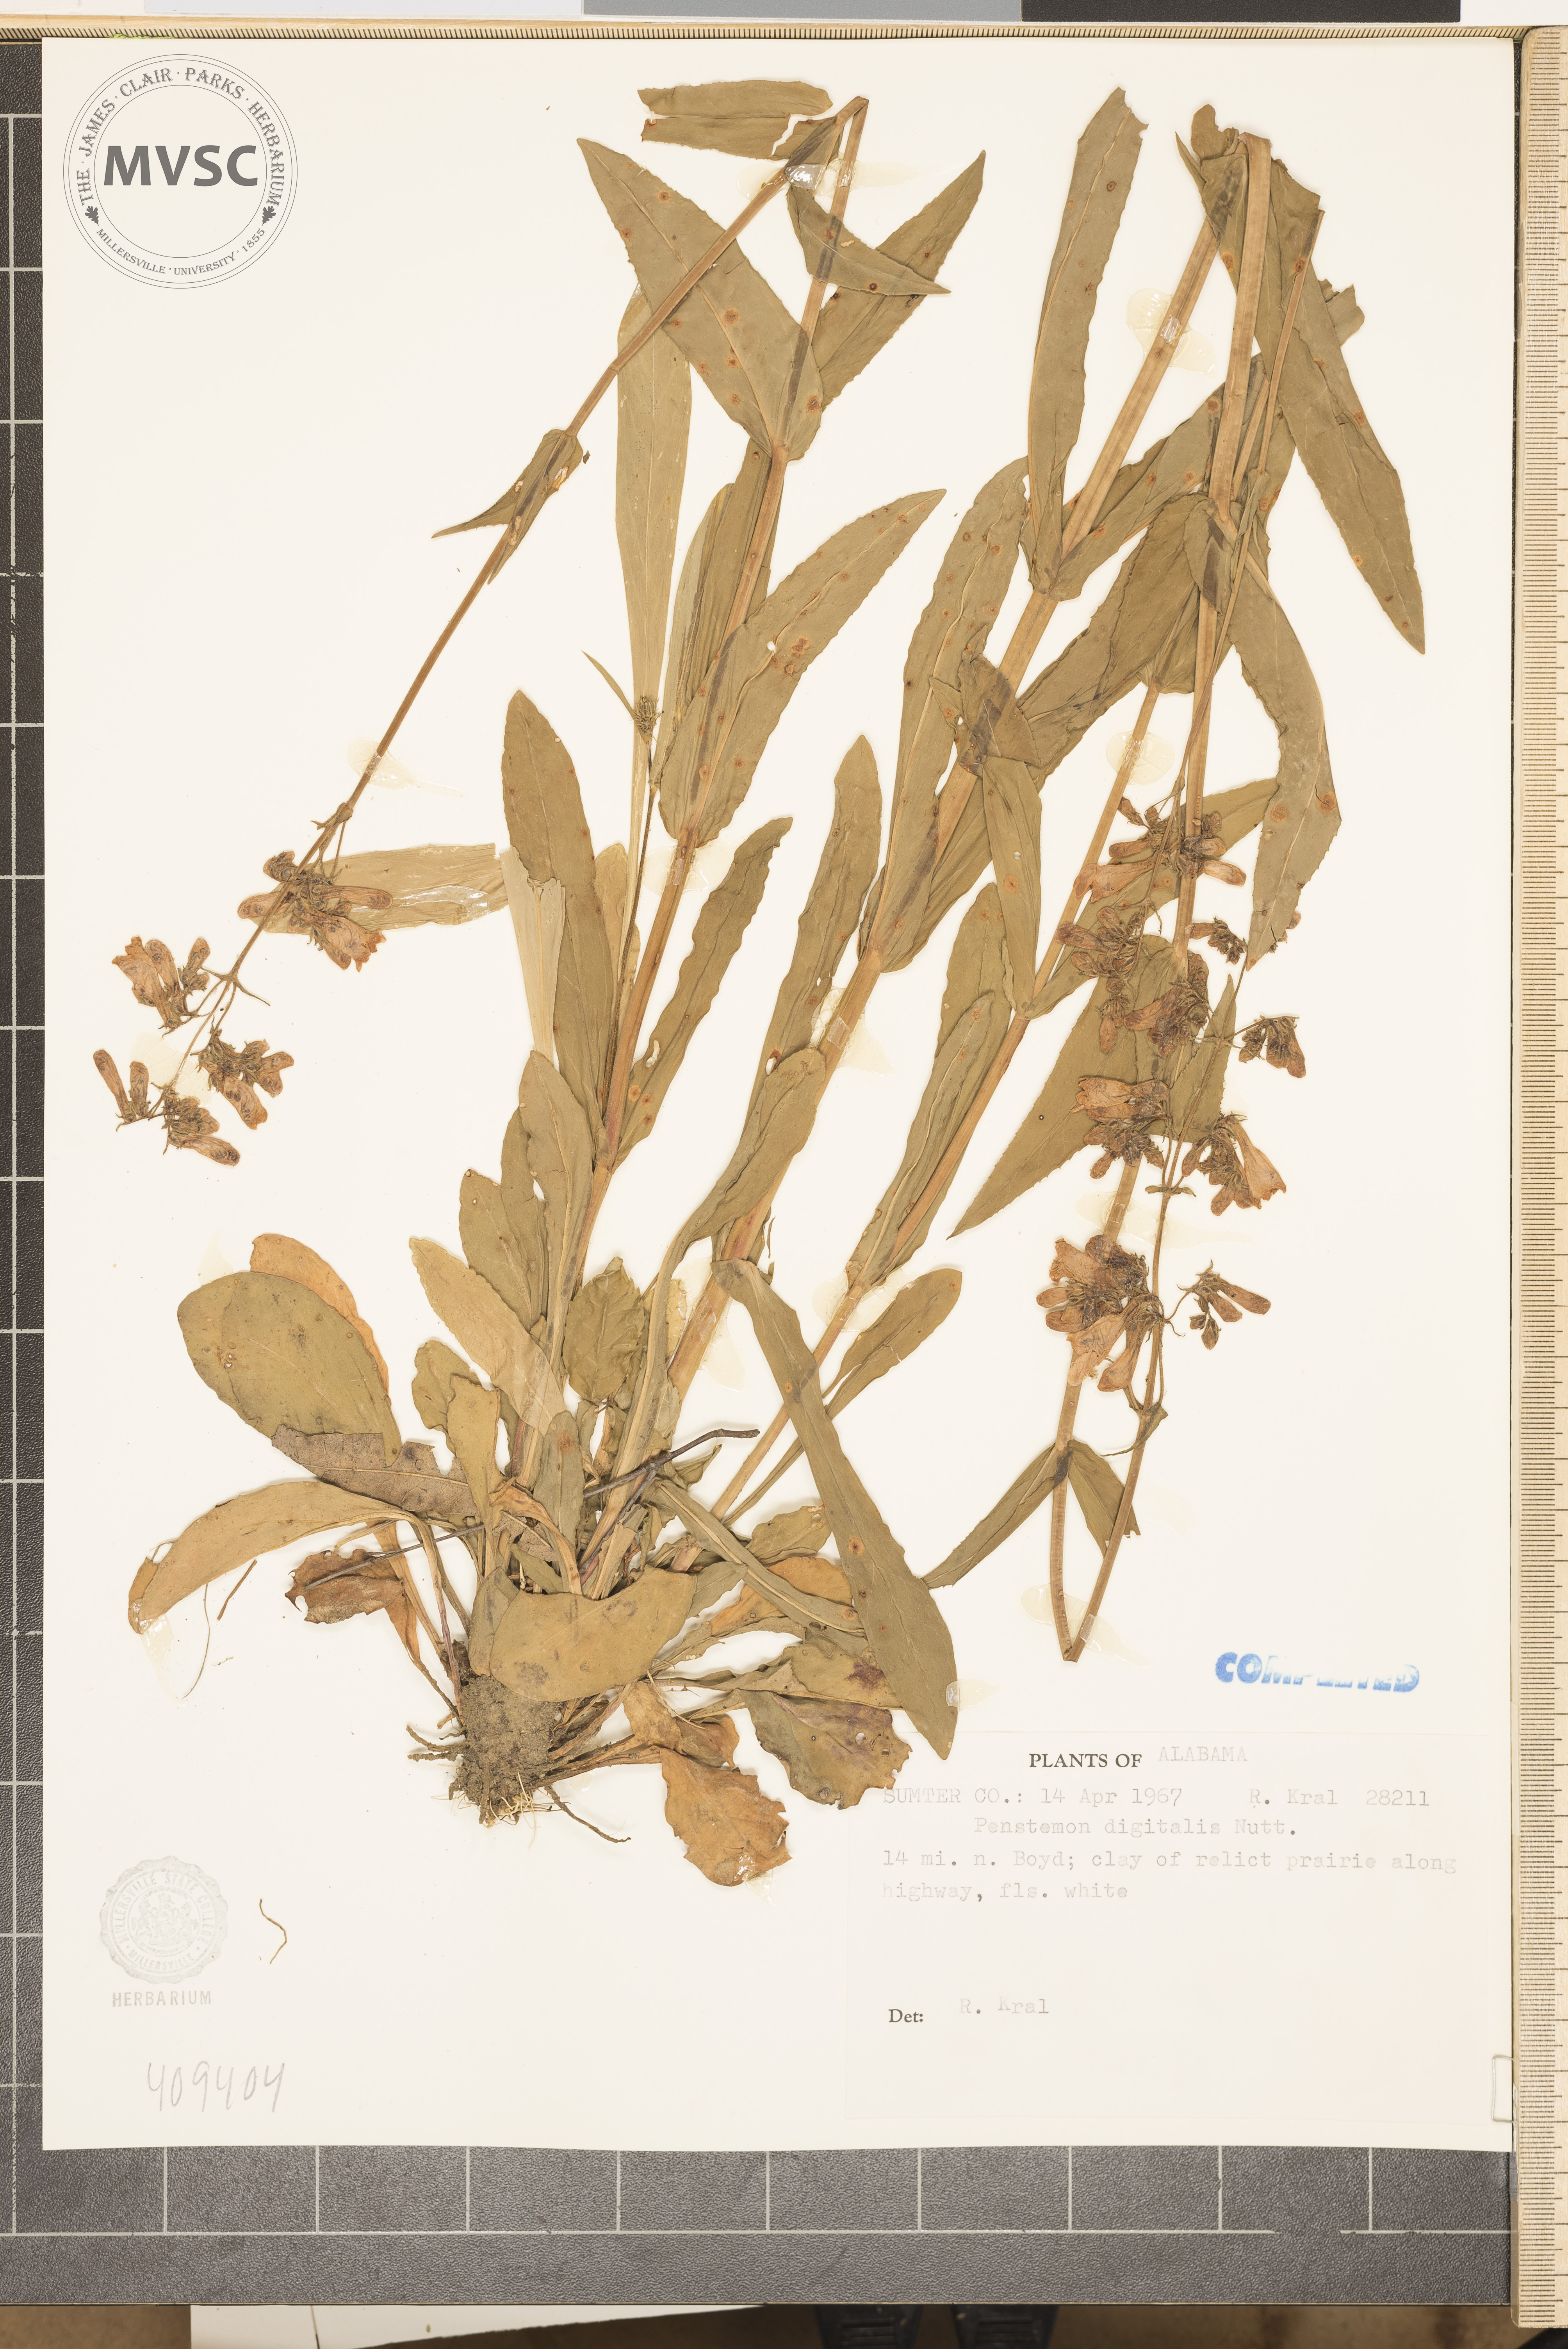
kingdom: Plantae
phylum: Tracheophyta
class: Magnoliopsida
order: Lamiales
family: Plantaginaceae
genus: Penstemon
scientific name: Penstemon digitalis
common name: Foxglove beardtongue
